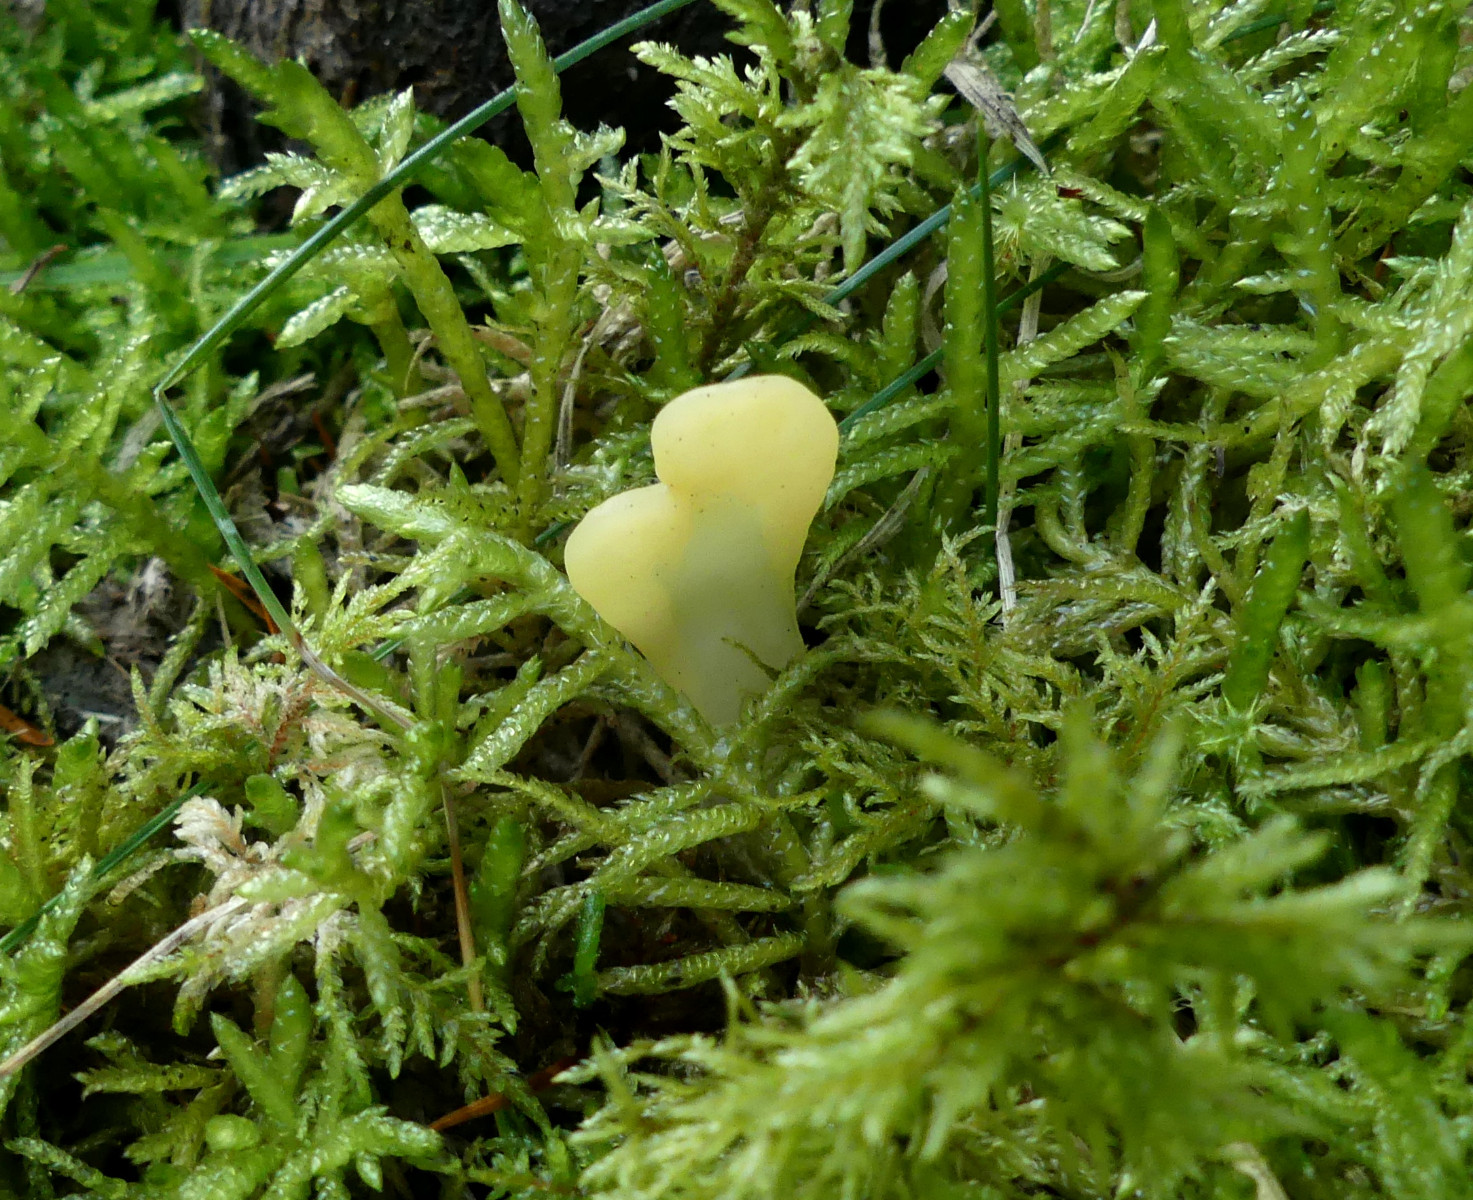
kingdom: Fungi
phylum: Ascomycota
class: Leotiomycetes
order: Rhytismatales
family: Cudoniaceae
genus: Spathularia
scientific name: Spathularia flavida
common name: gul spatelsvamp
